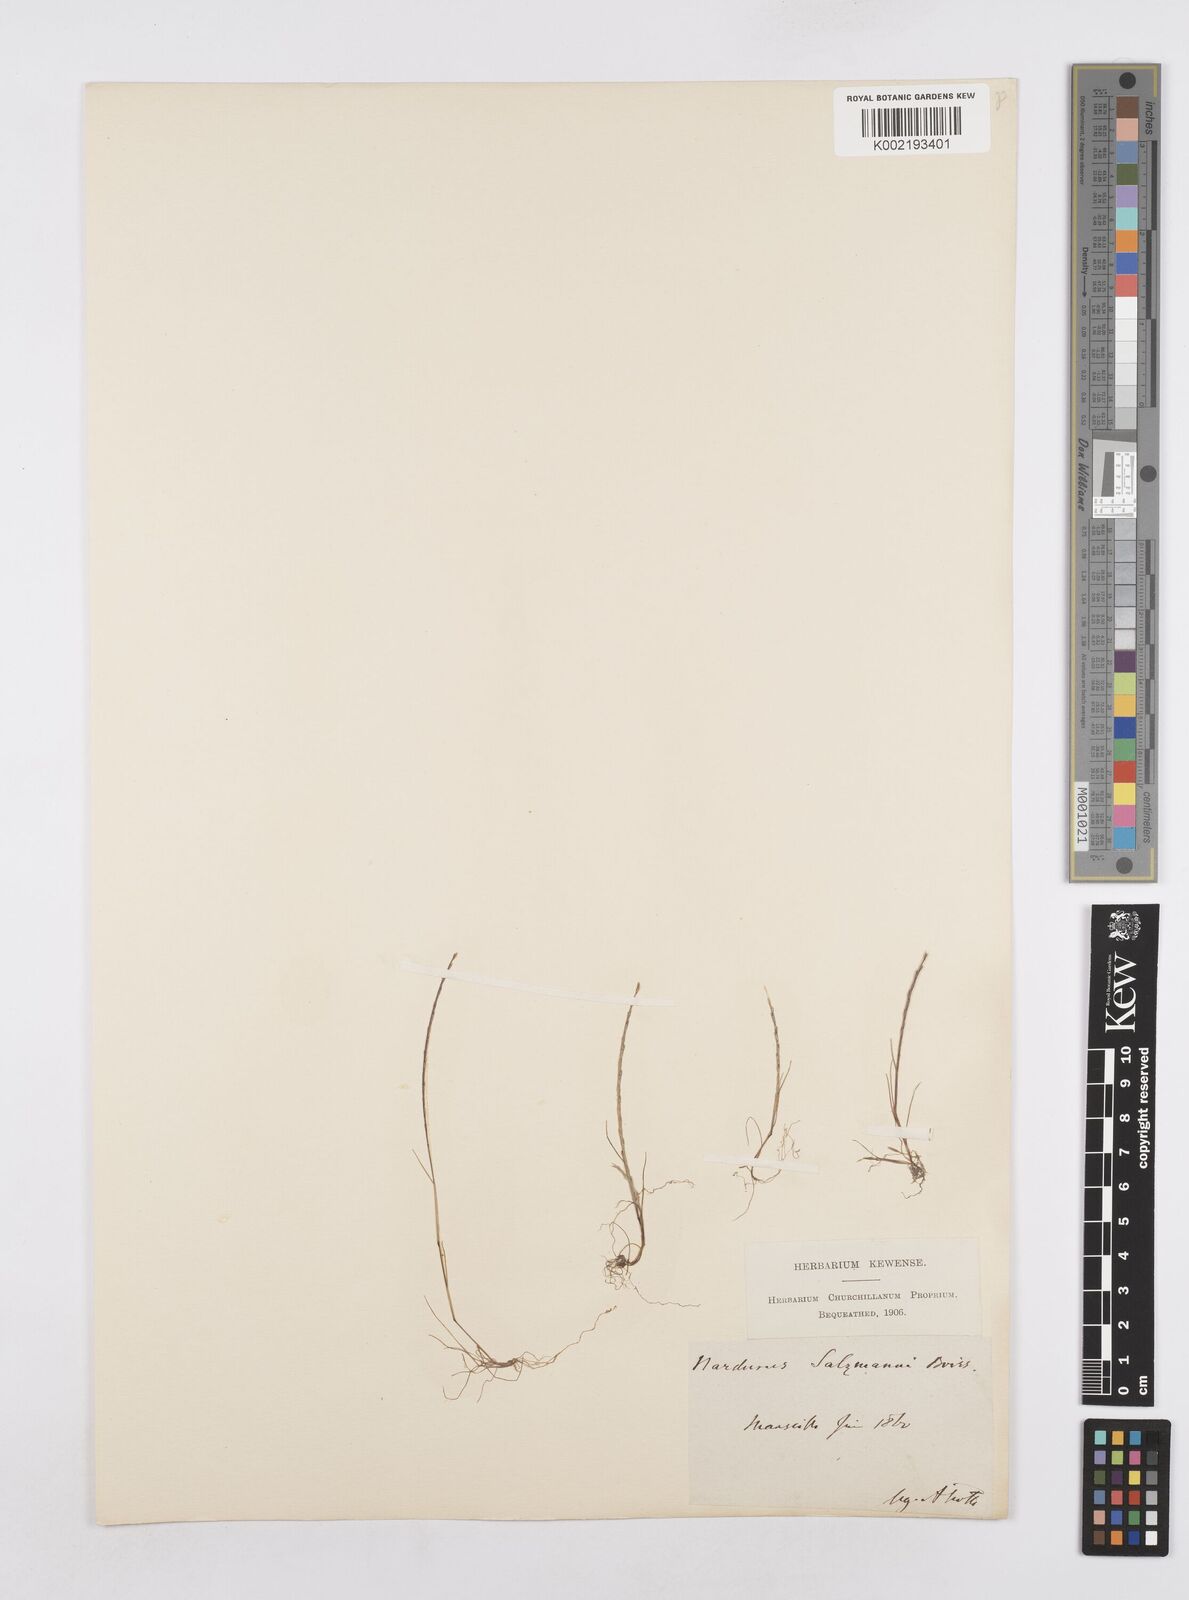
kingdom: Plantae
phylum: Tracheophyta
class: Liliopsida
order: Poales
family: Poaceae
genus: Festuca
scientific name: Festuca salzmannii
